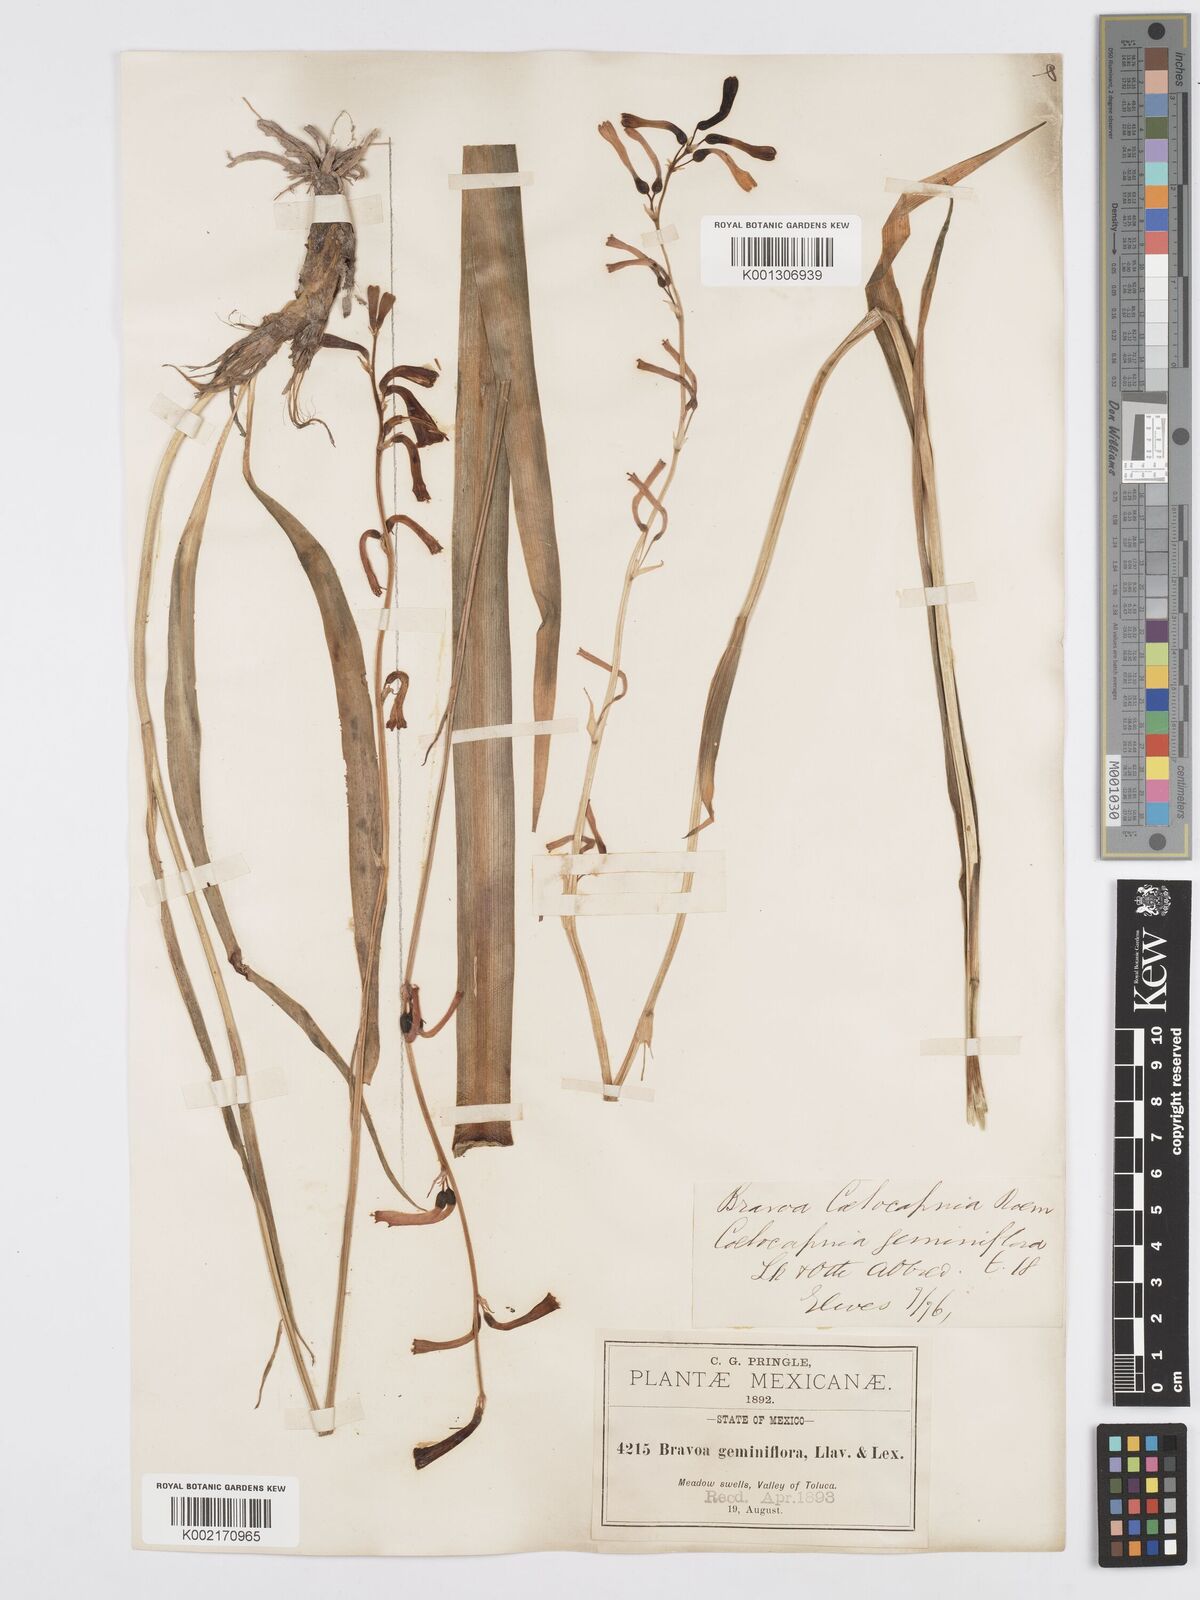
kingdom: Plantae
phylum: Tracheophyta
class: Liliopsida
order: Asparagales
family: Asparagaceae
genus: Agave
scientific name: Agave coetocapnia
